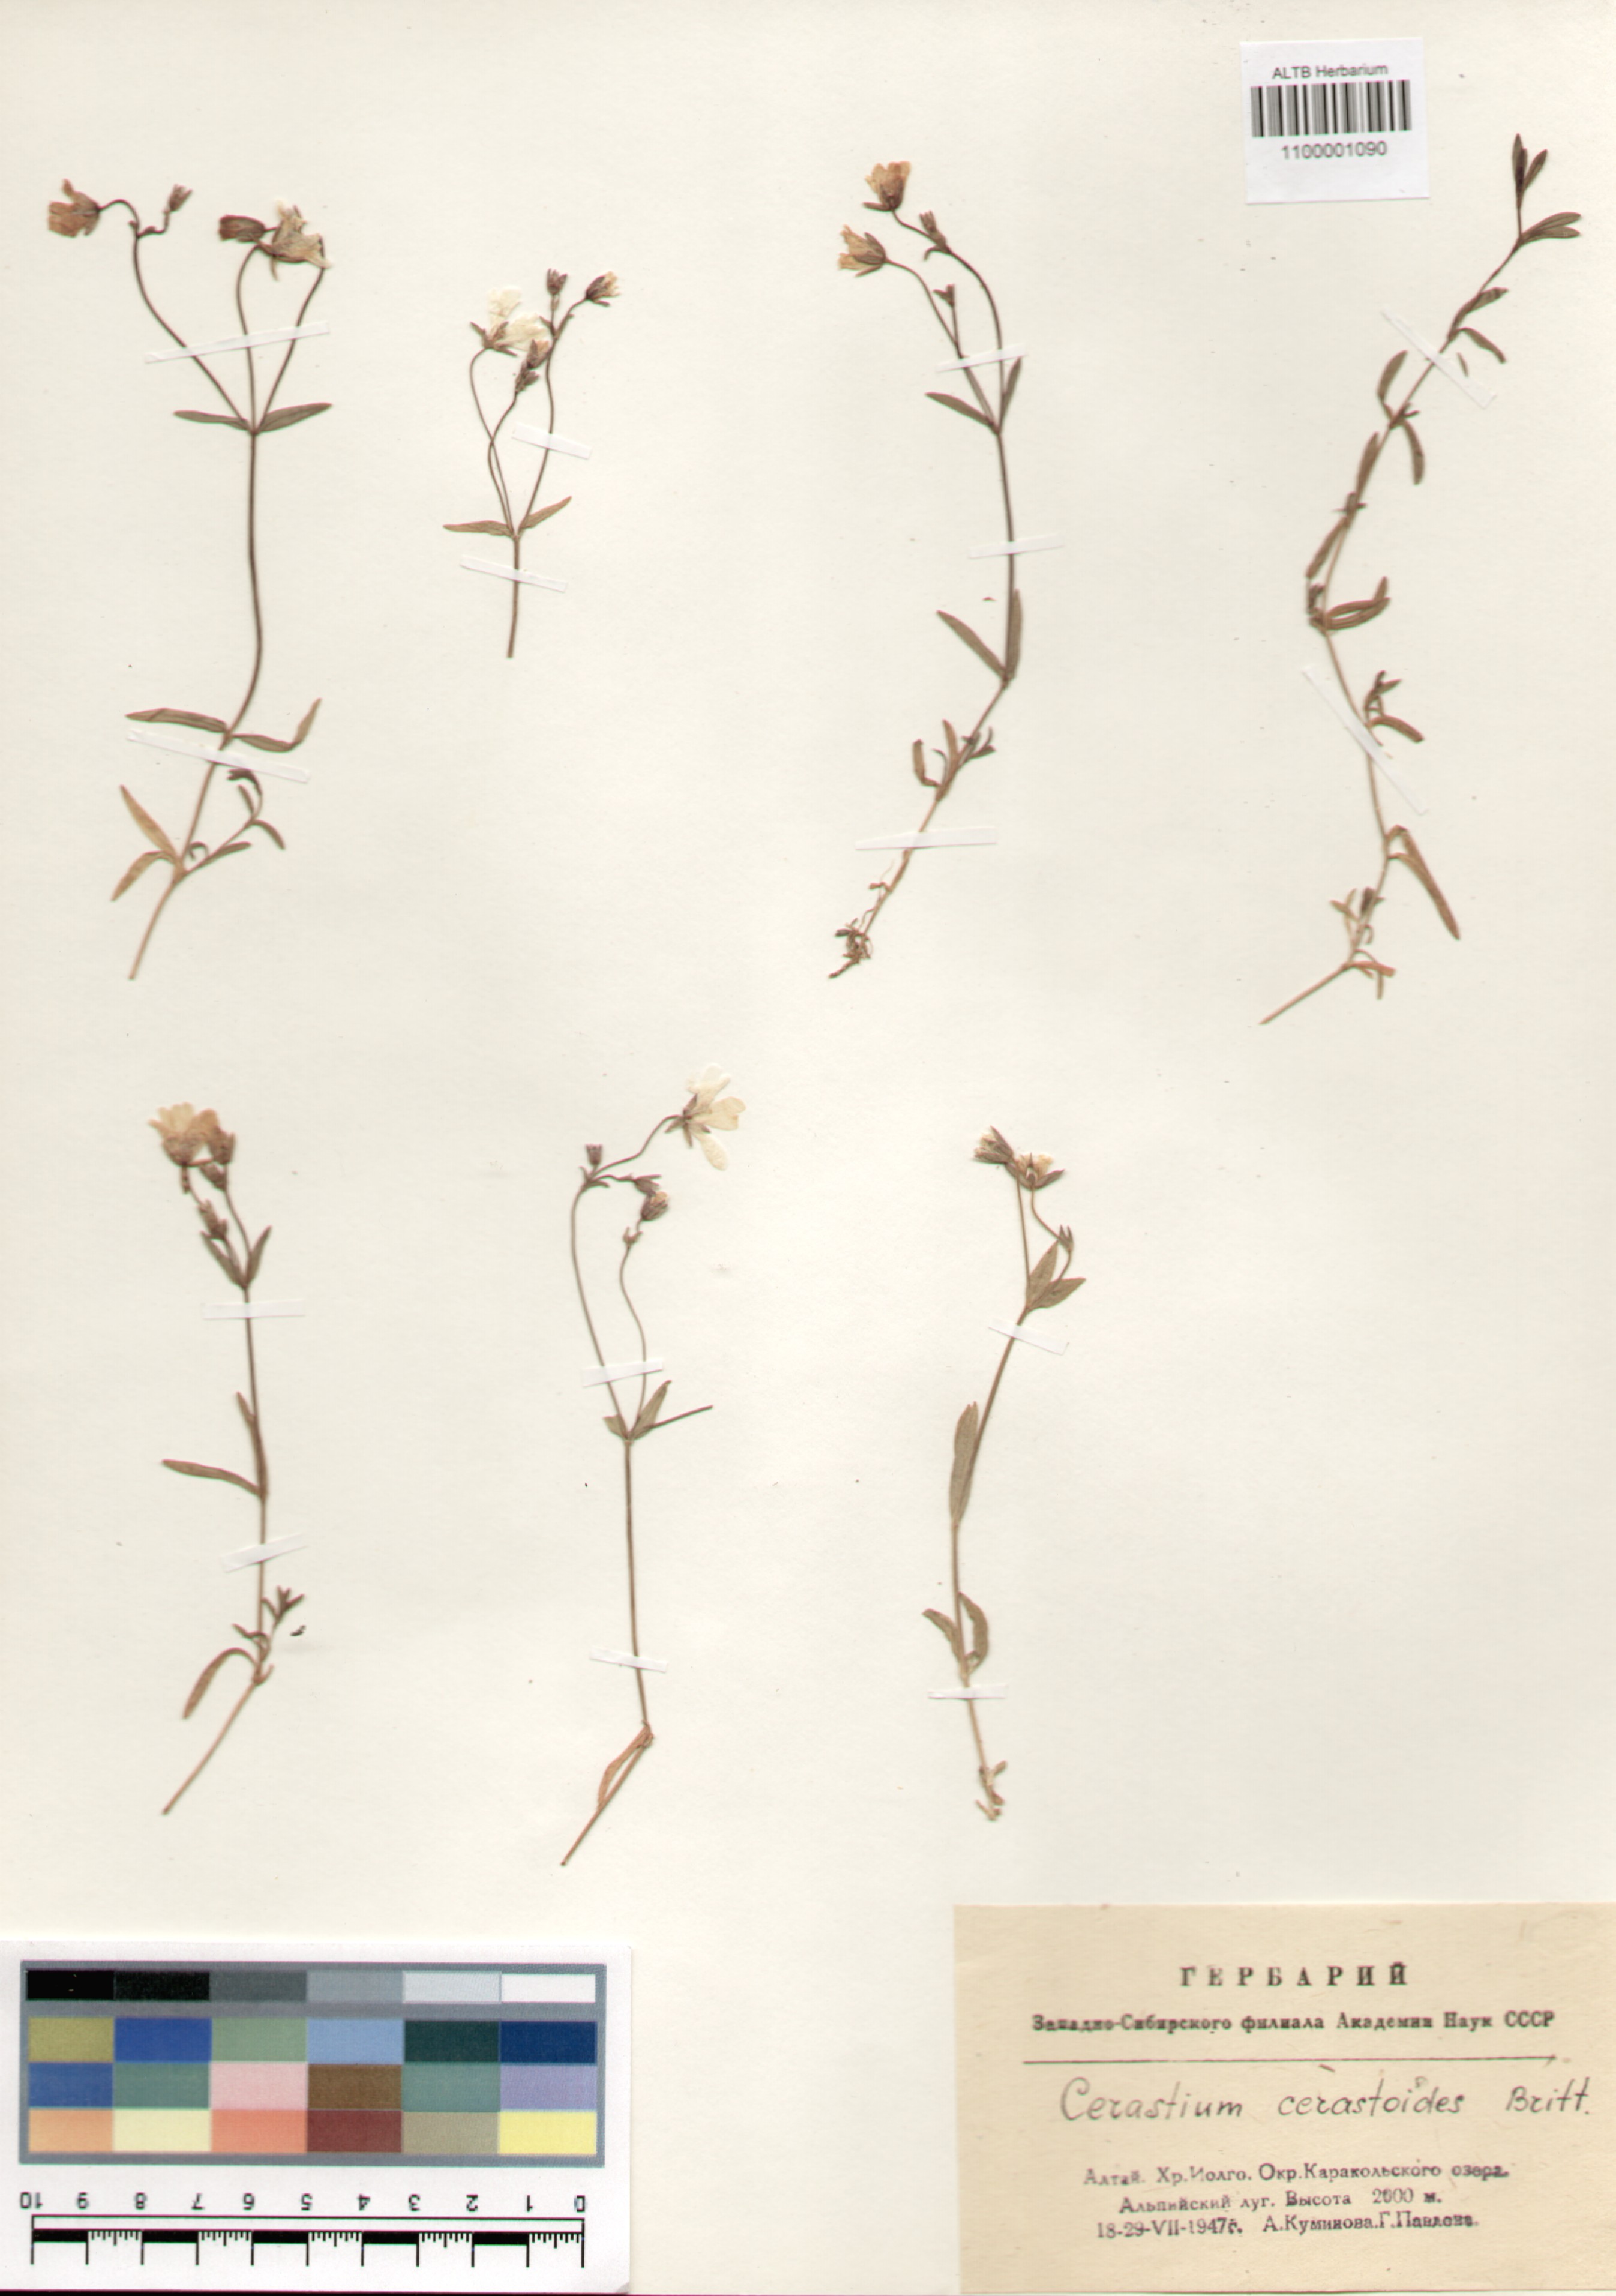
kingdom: Plantae
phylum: Tracheophyta
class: Magnoliopsida
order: Caryophyllales
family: Caryophyllaceae
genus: Dichodon
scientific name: Dichodon cerastoides
